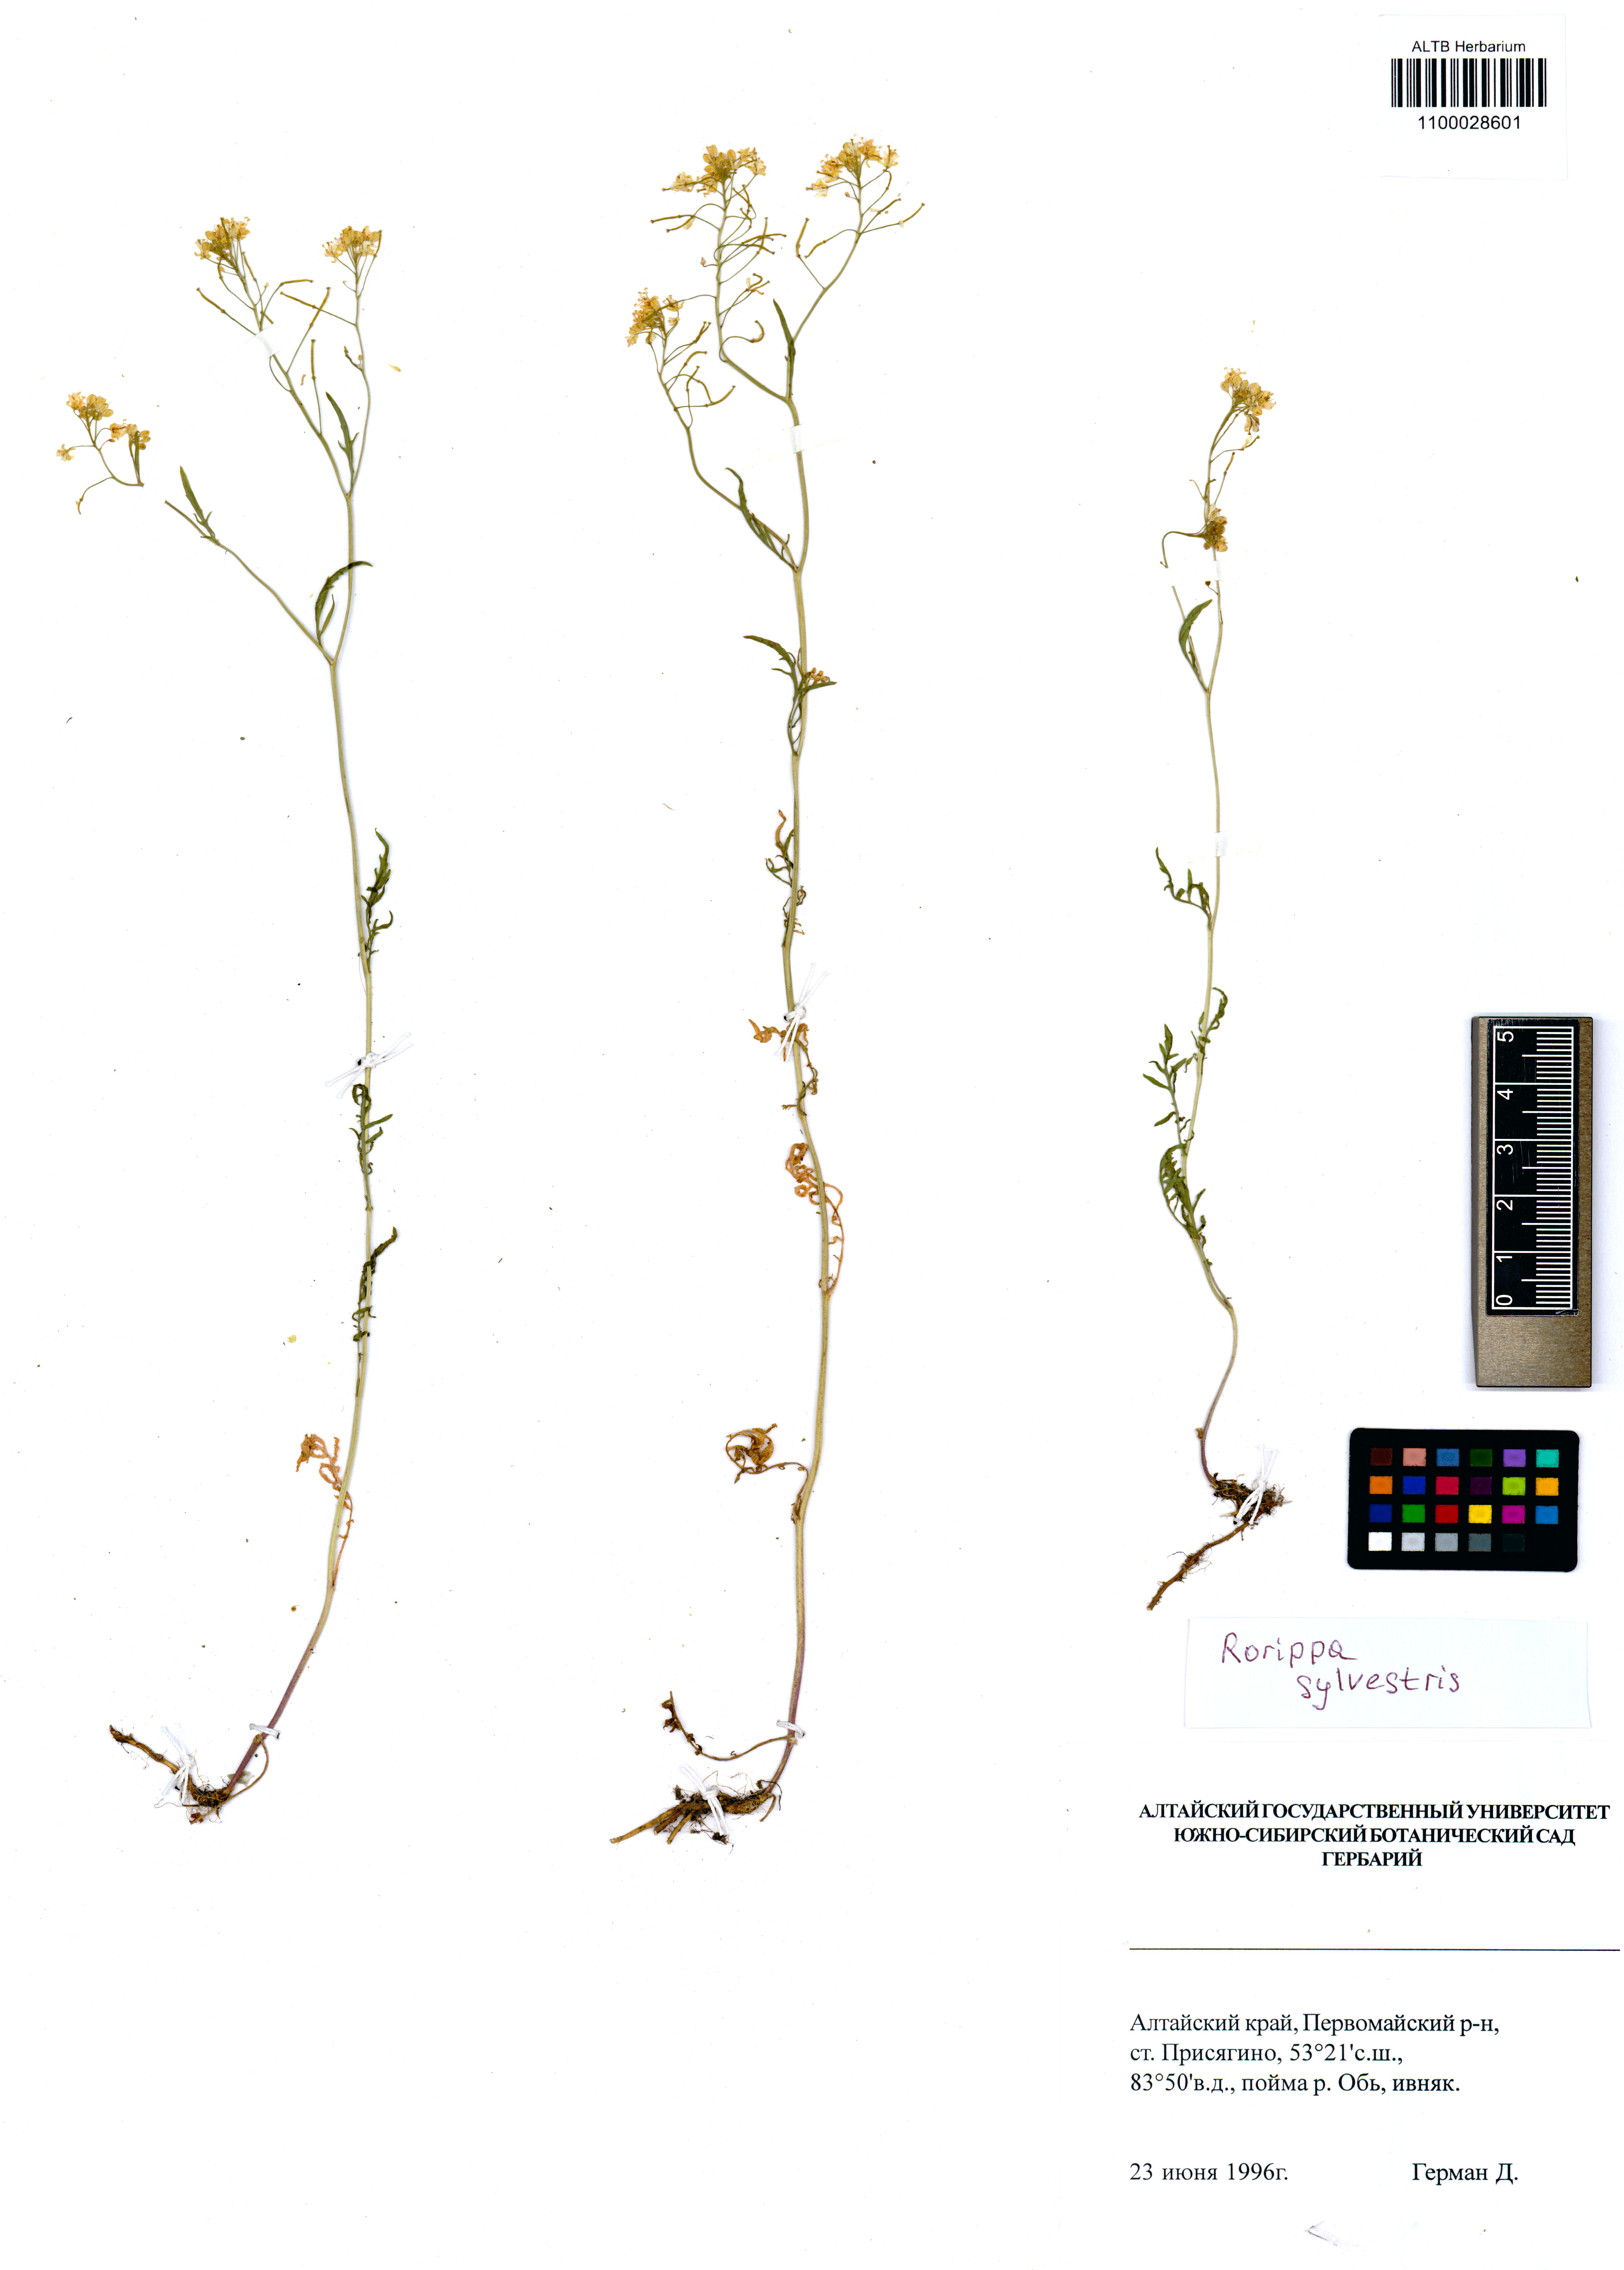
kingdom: Plantae
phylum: Tracheophyta
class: Magnoliopsida
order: Brassicales
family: Brassicaceae
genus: Rorippa
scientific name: Rorippa sylvestris
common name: Creeping yellowcress
